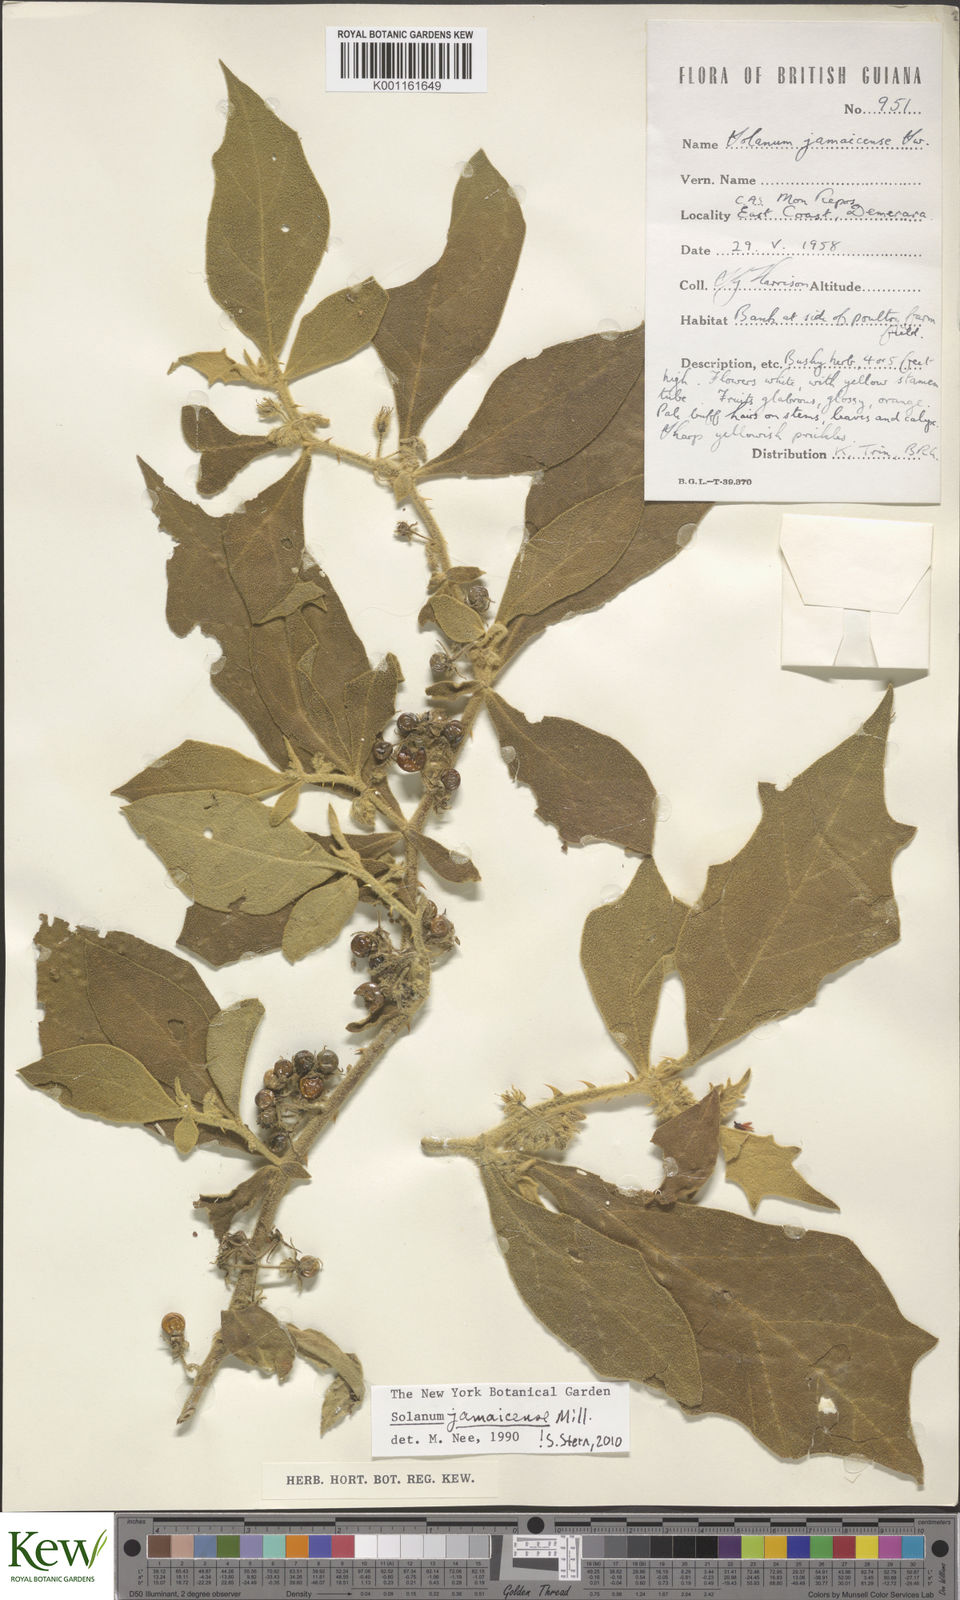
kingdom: Plantae
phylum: Tracheophyta
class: Magnoliopsida
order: Solanales
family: Solanaceae
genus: Solanum
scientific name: Solanum jamaicense
